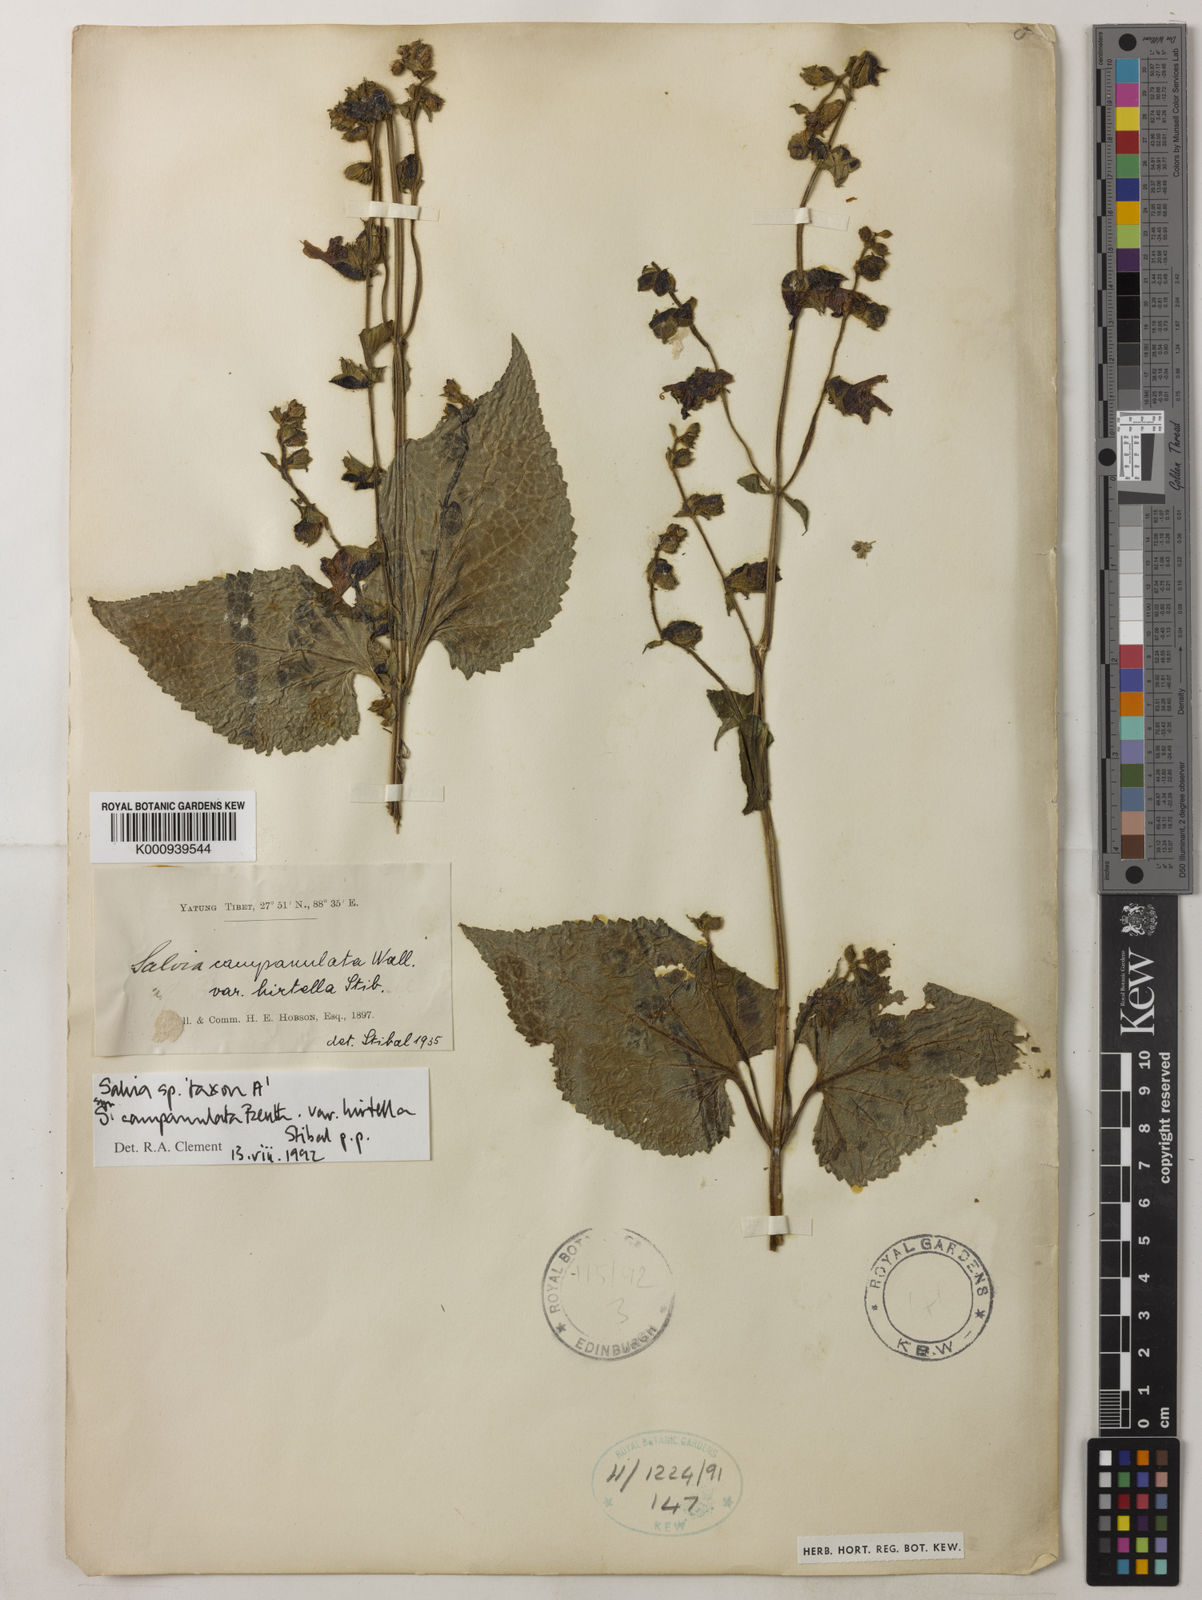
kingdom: Plantae
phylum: Tracheophyta
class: Magnoliopsida
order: Lamiales
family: Lamiaceae
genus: Salvia
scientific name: Salvia campanulata
